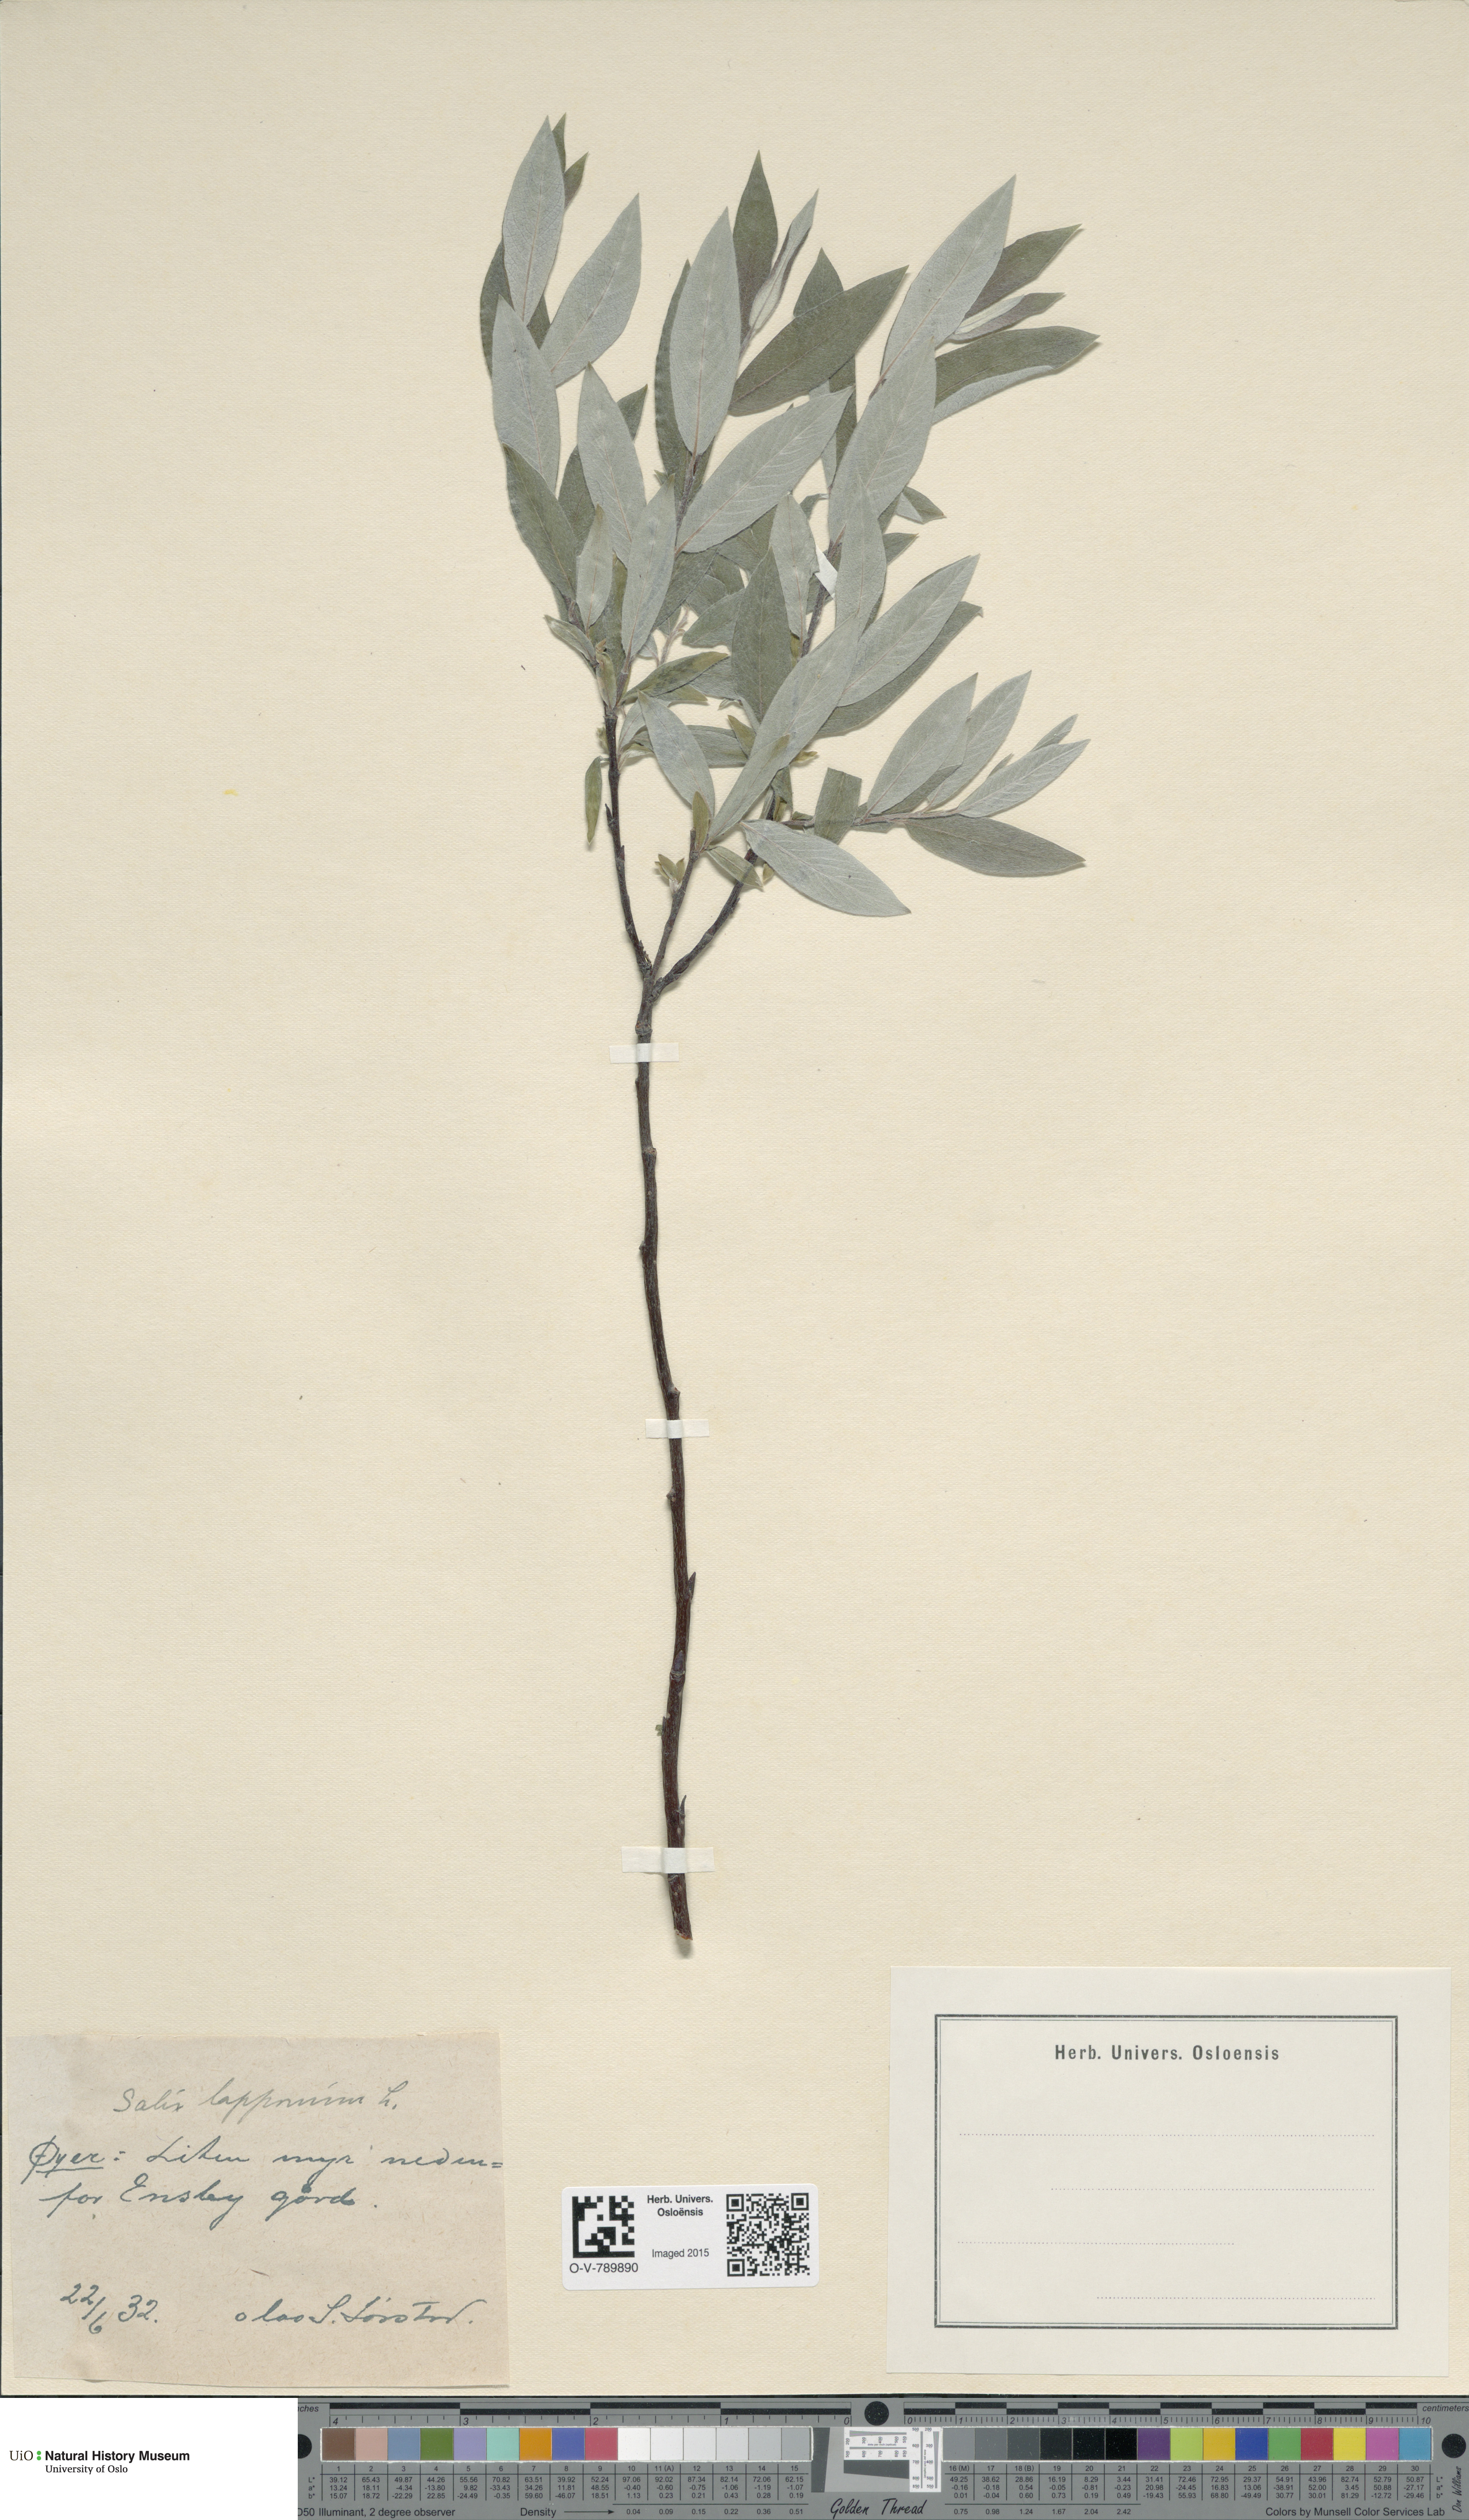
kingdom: Plantae
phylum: Tracheophyta
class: Magnoliopsida
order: Malpighiales
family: Salicaceae
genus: Salix
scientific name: Salix lapponum
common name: Downy willow
